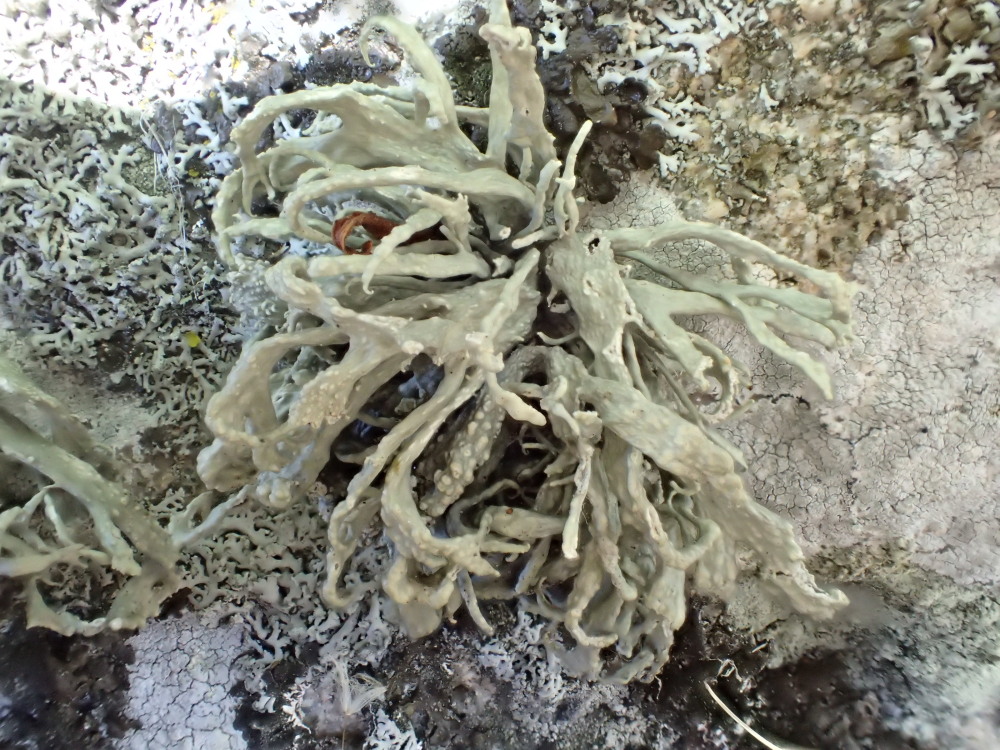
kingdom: Fungi
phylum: Ascomycota
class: Lecanoromycetes
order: Lecanorales
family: Ramalinaceae
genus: Ramalina
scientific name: Ramalina siliquosa
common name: klippe-grenlav
